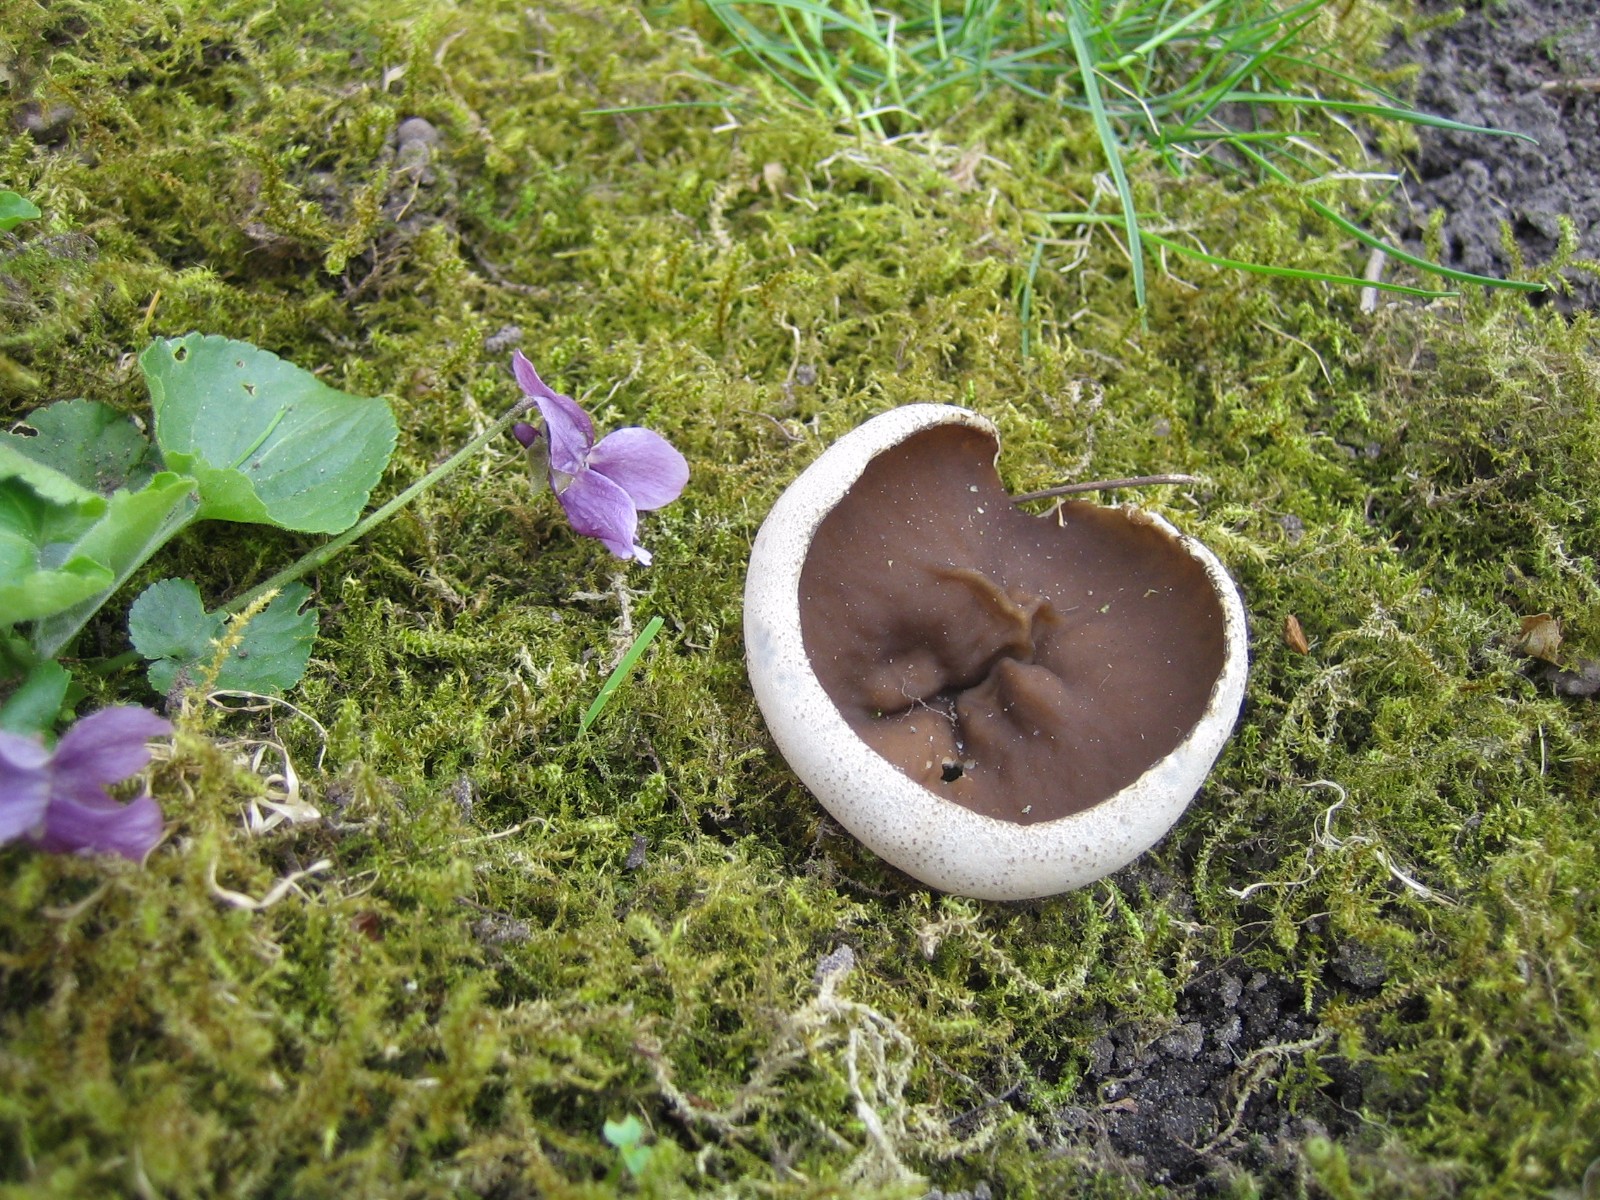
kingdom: Fungi
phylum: Ascomycota
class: Pezizomycetes
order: Pezizales
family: Morchellaceae
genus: Disciotis
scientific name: Disciotis venosa
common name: klor-bægermorkel
